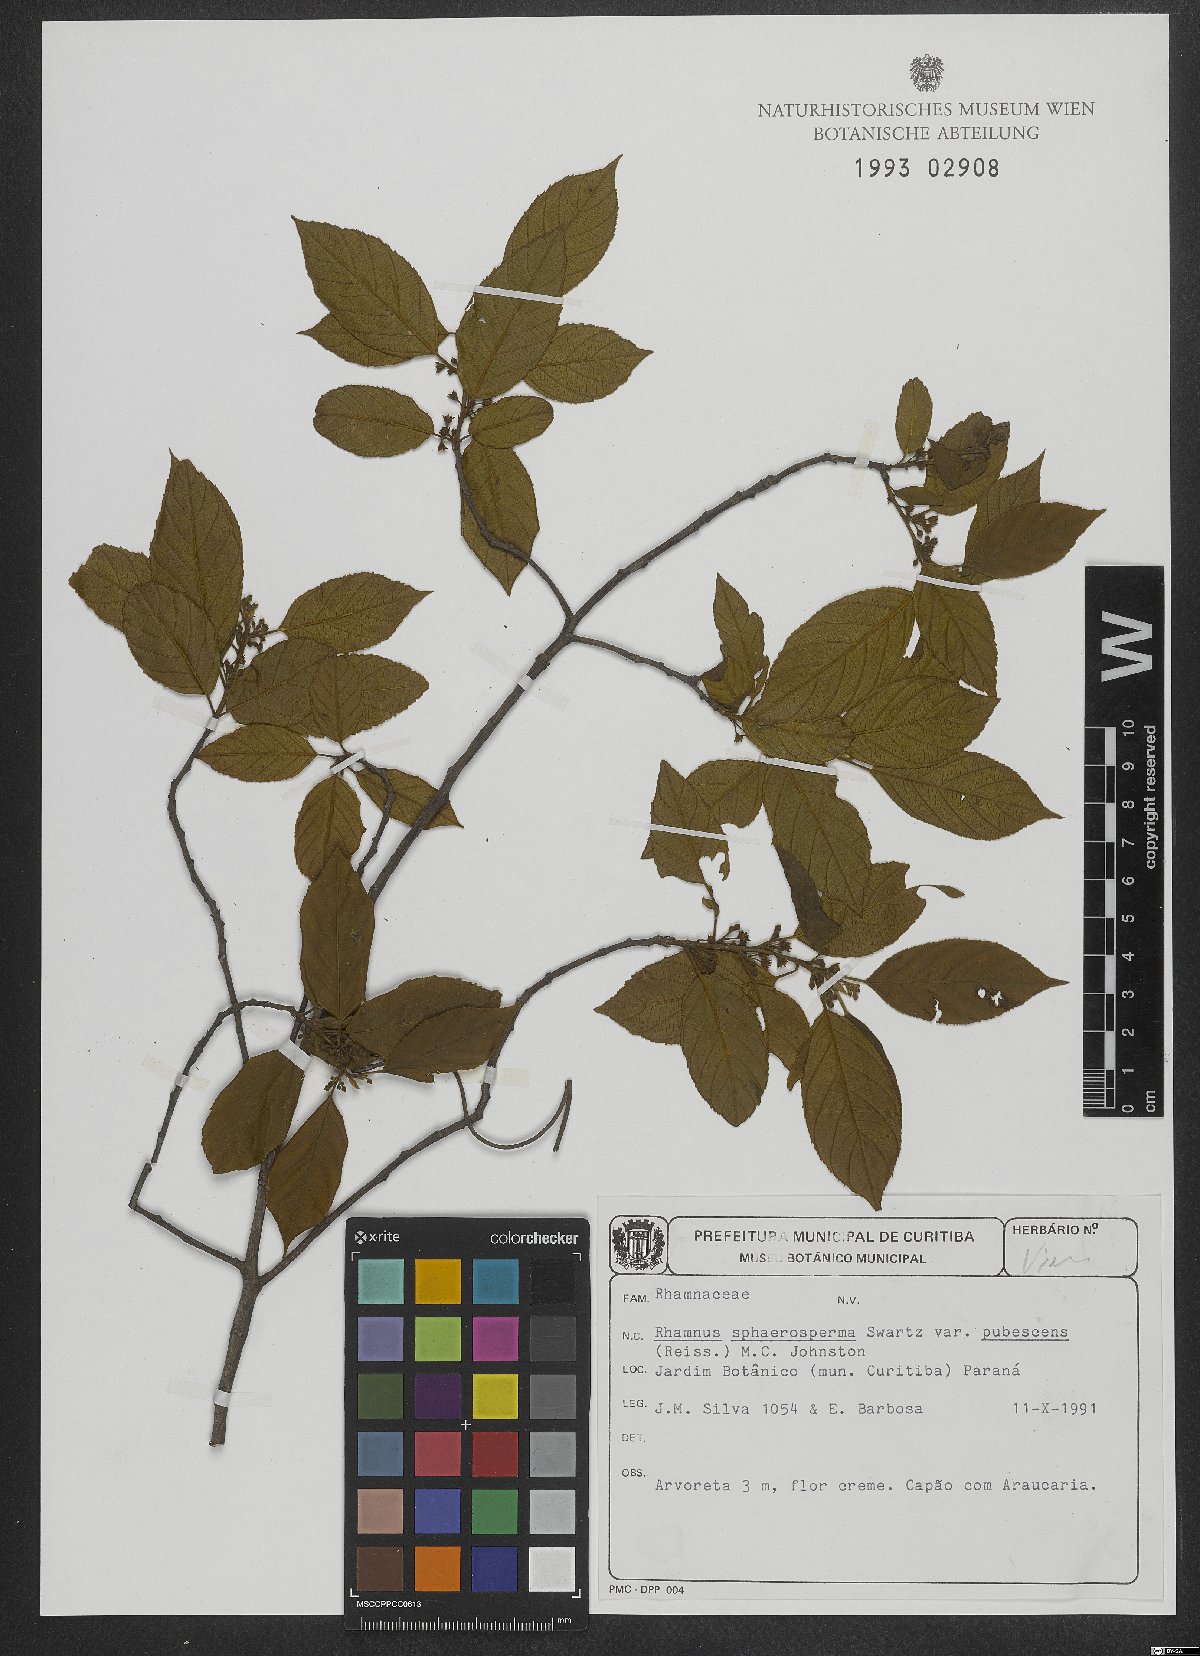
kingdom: Plantae
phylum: Tracheophyta
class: Magnoliopsida
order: Rosales
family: Rhamnaceae
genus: Frangula
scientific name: Frangula sphaerosperma
